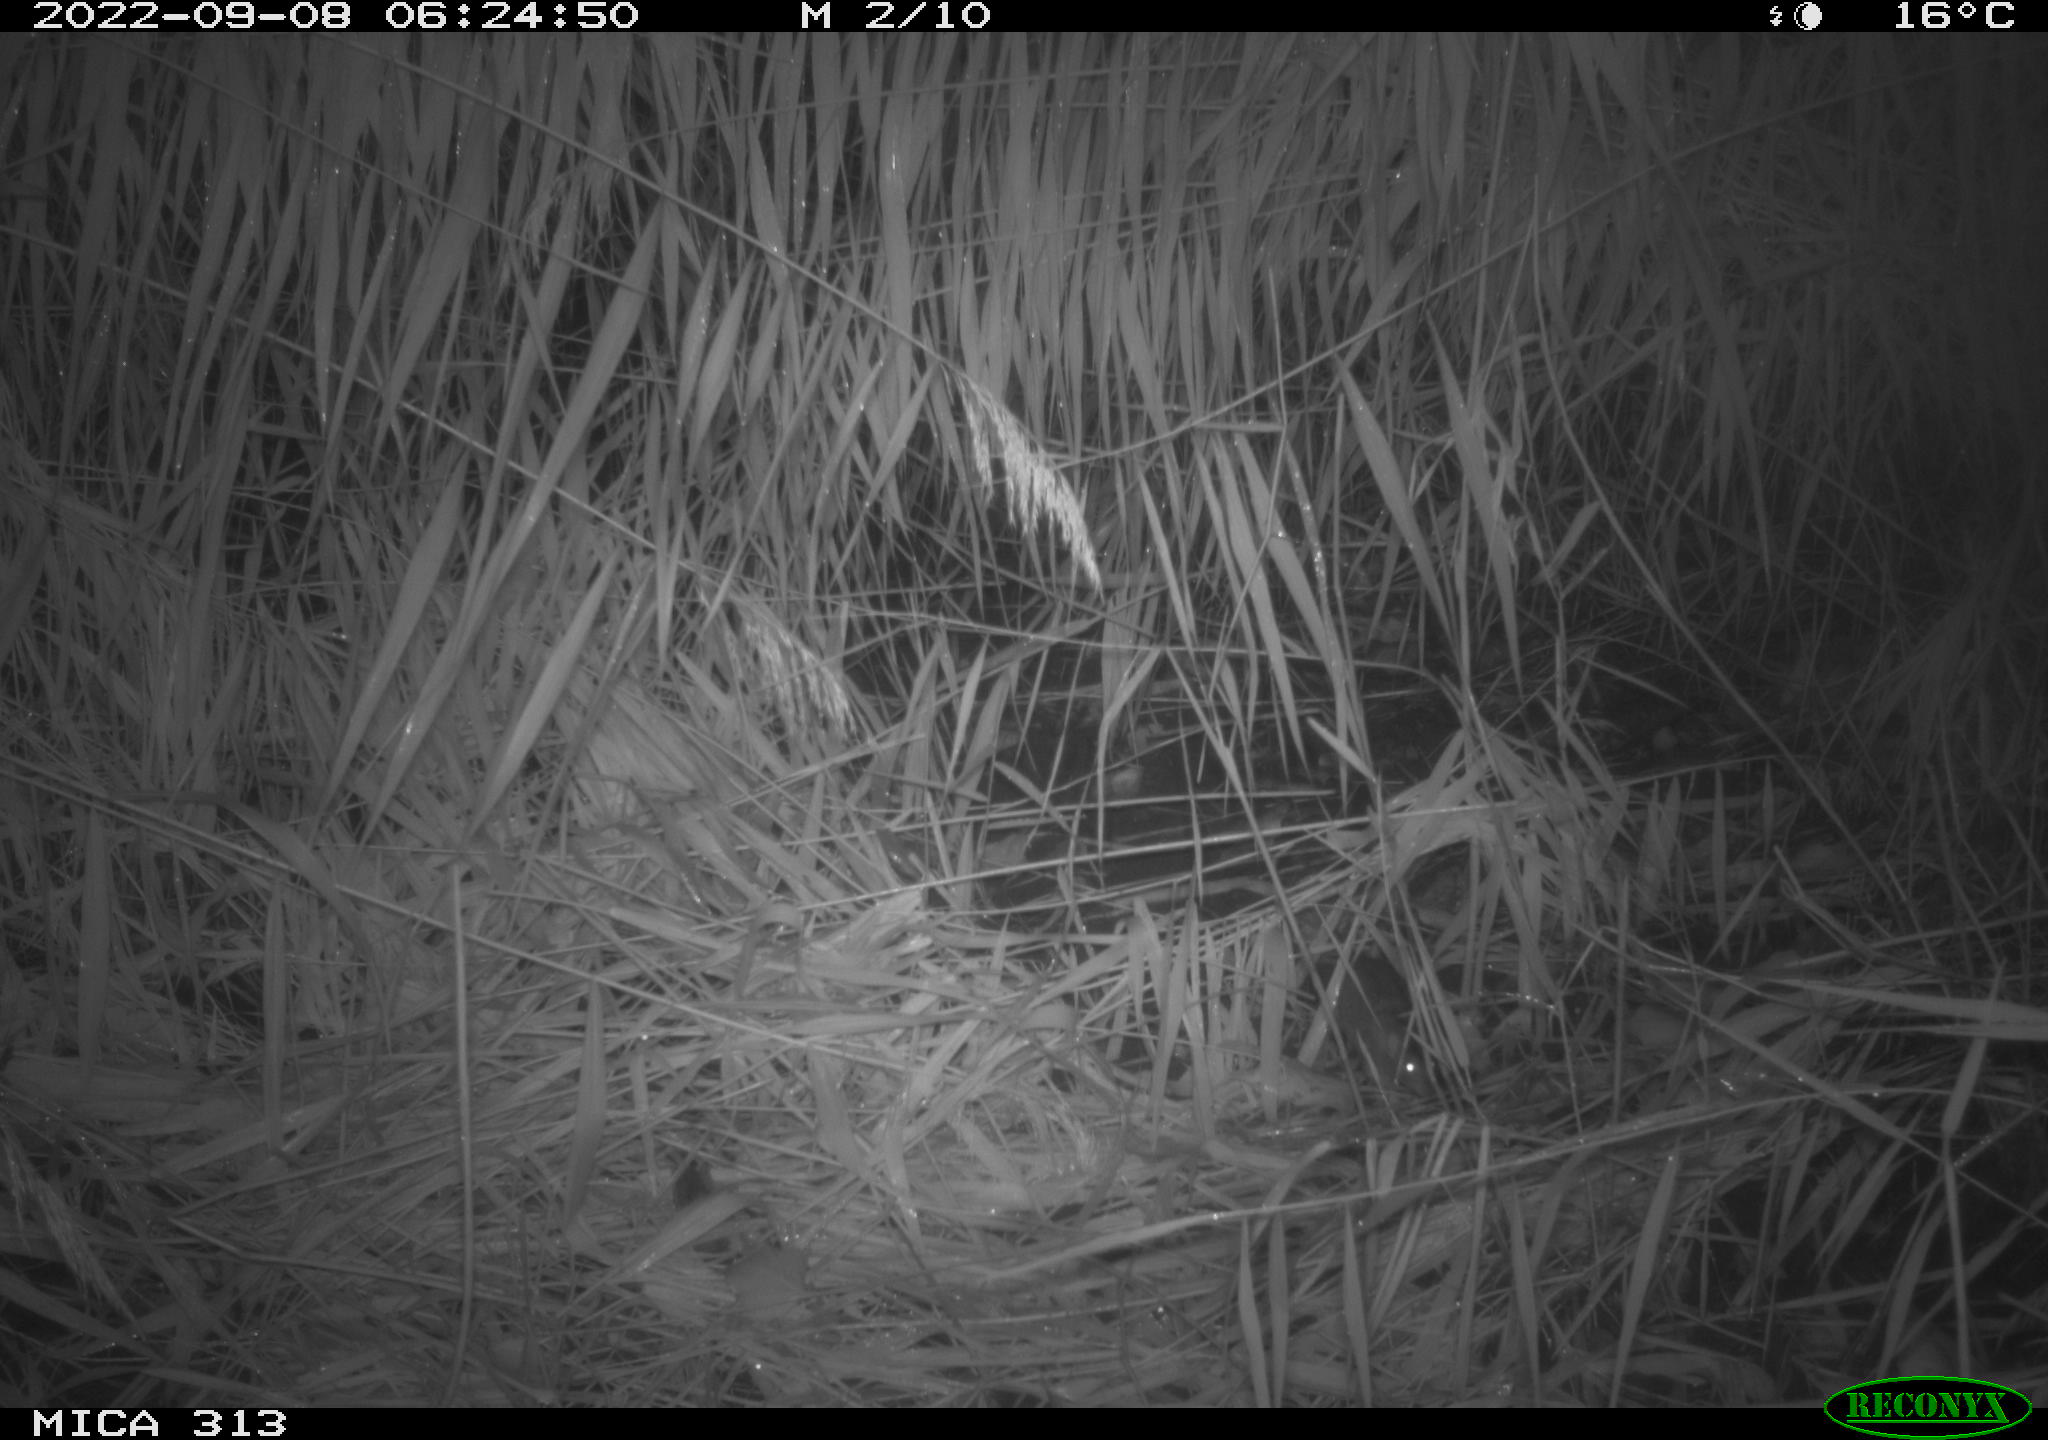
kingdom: Animalia
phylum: Chordata
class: Mammalia
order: Rodentia
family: Muridae
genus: Rattus
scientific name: Rattus norvegicus
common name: Brown rat
